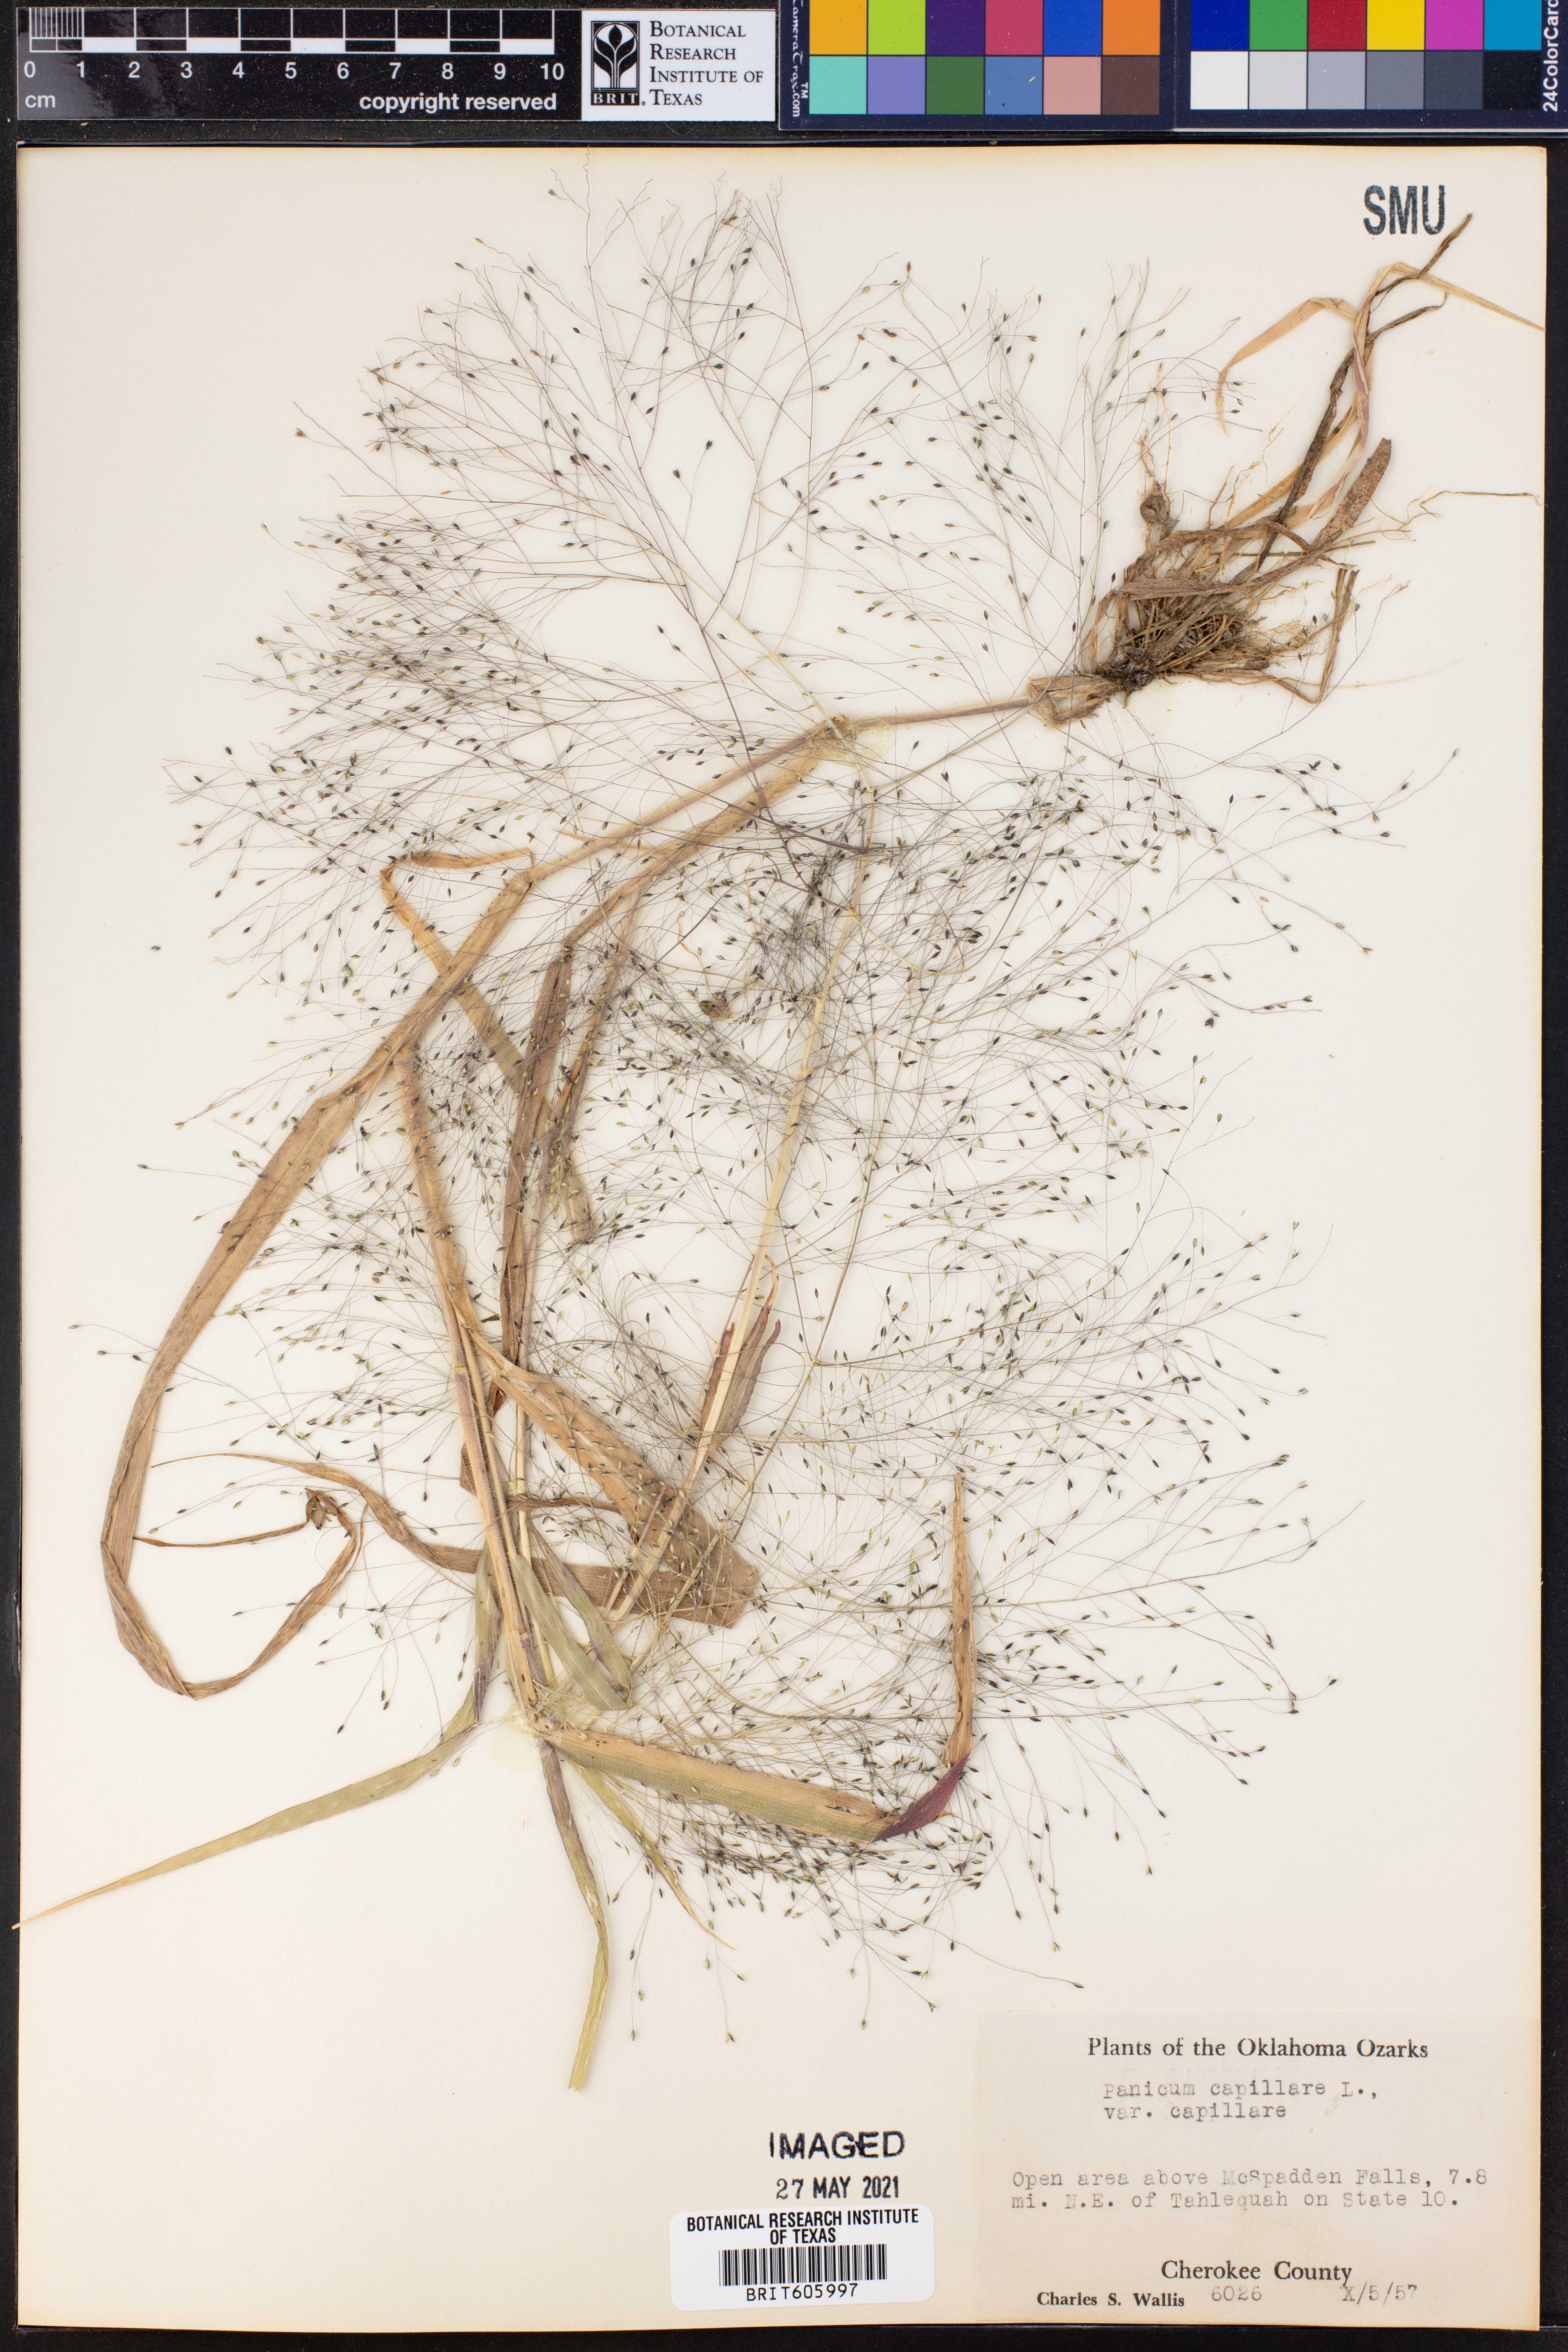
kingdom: Plantae
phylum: Tracheophyta
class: Liliopsida
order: Poales
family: Poaceae
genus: Panicum
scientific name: Panicum capillare
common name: Witch-grass
